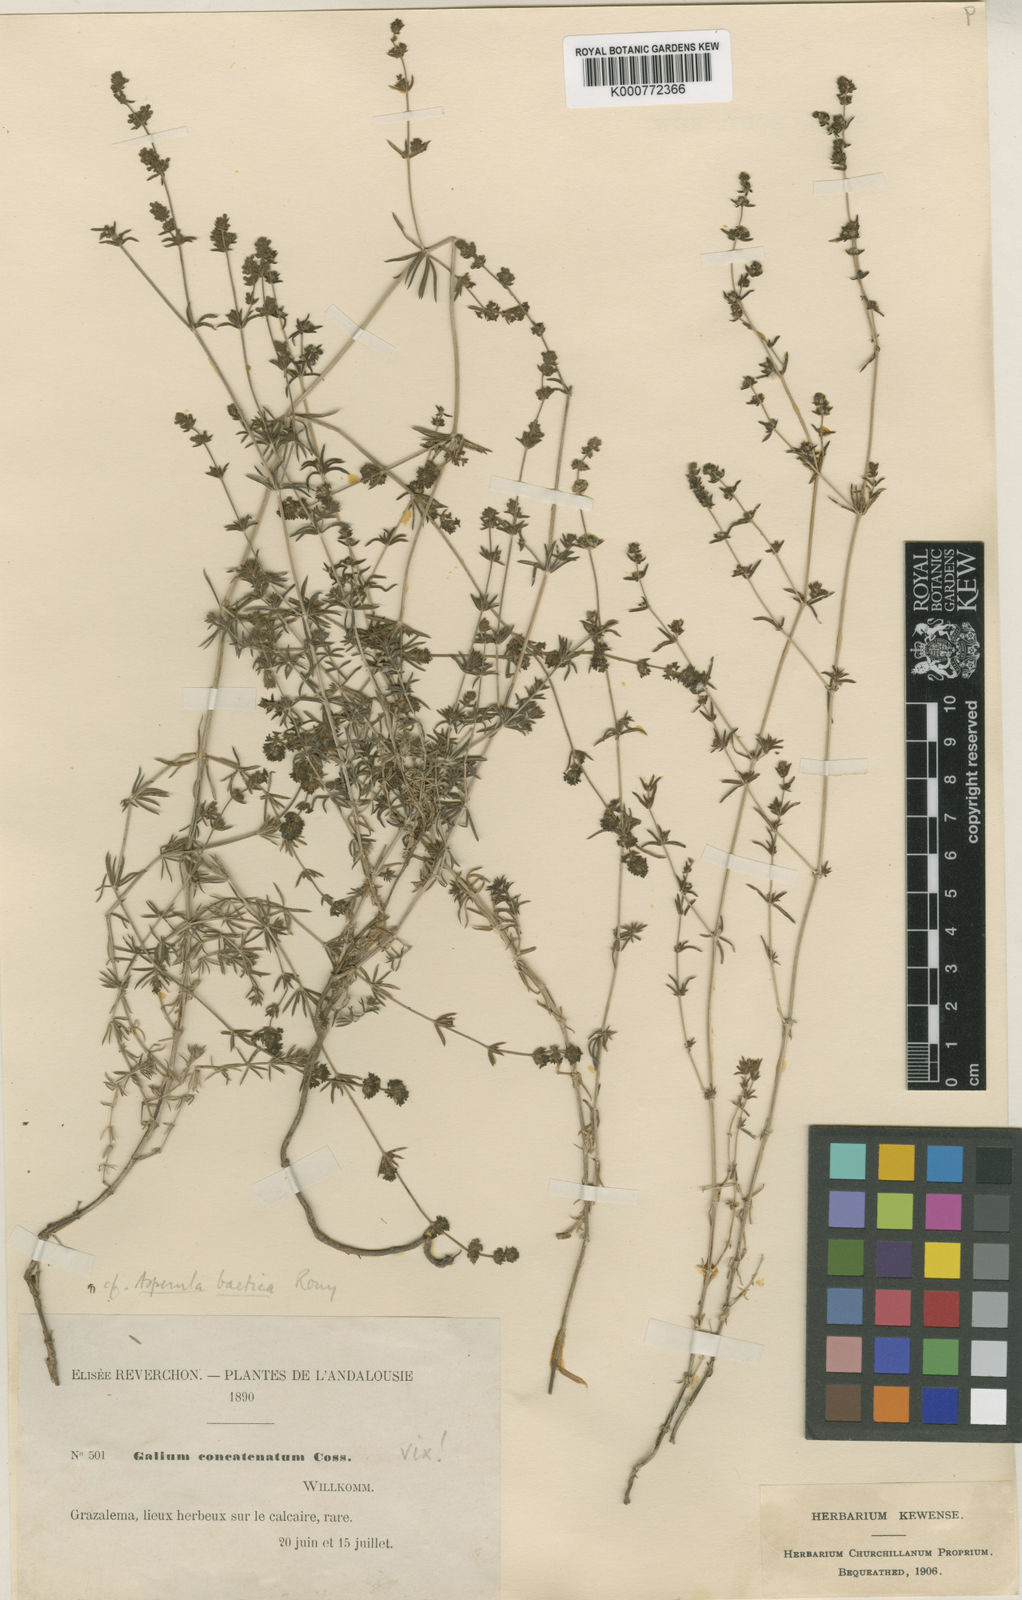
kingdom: Plantae
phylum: Tracheophyta
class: Magnoliopsida
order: Gentianales
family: Rubiaceae
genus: Galium
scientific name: Galium baeticum
